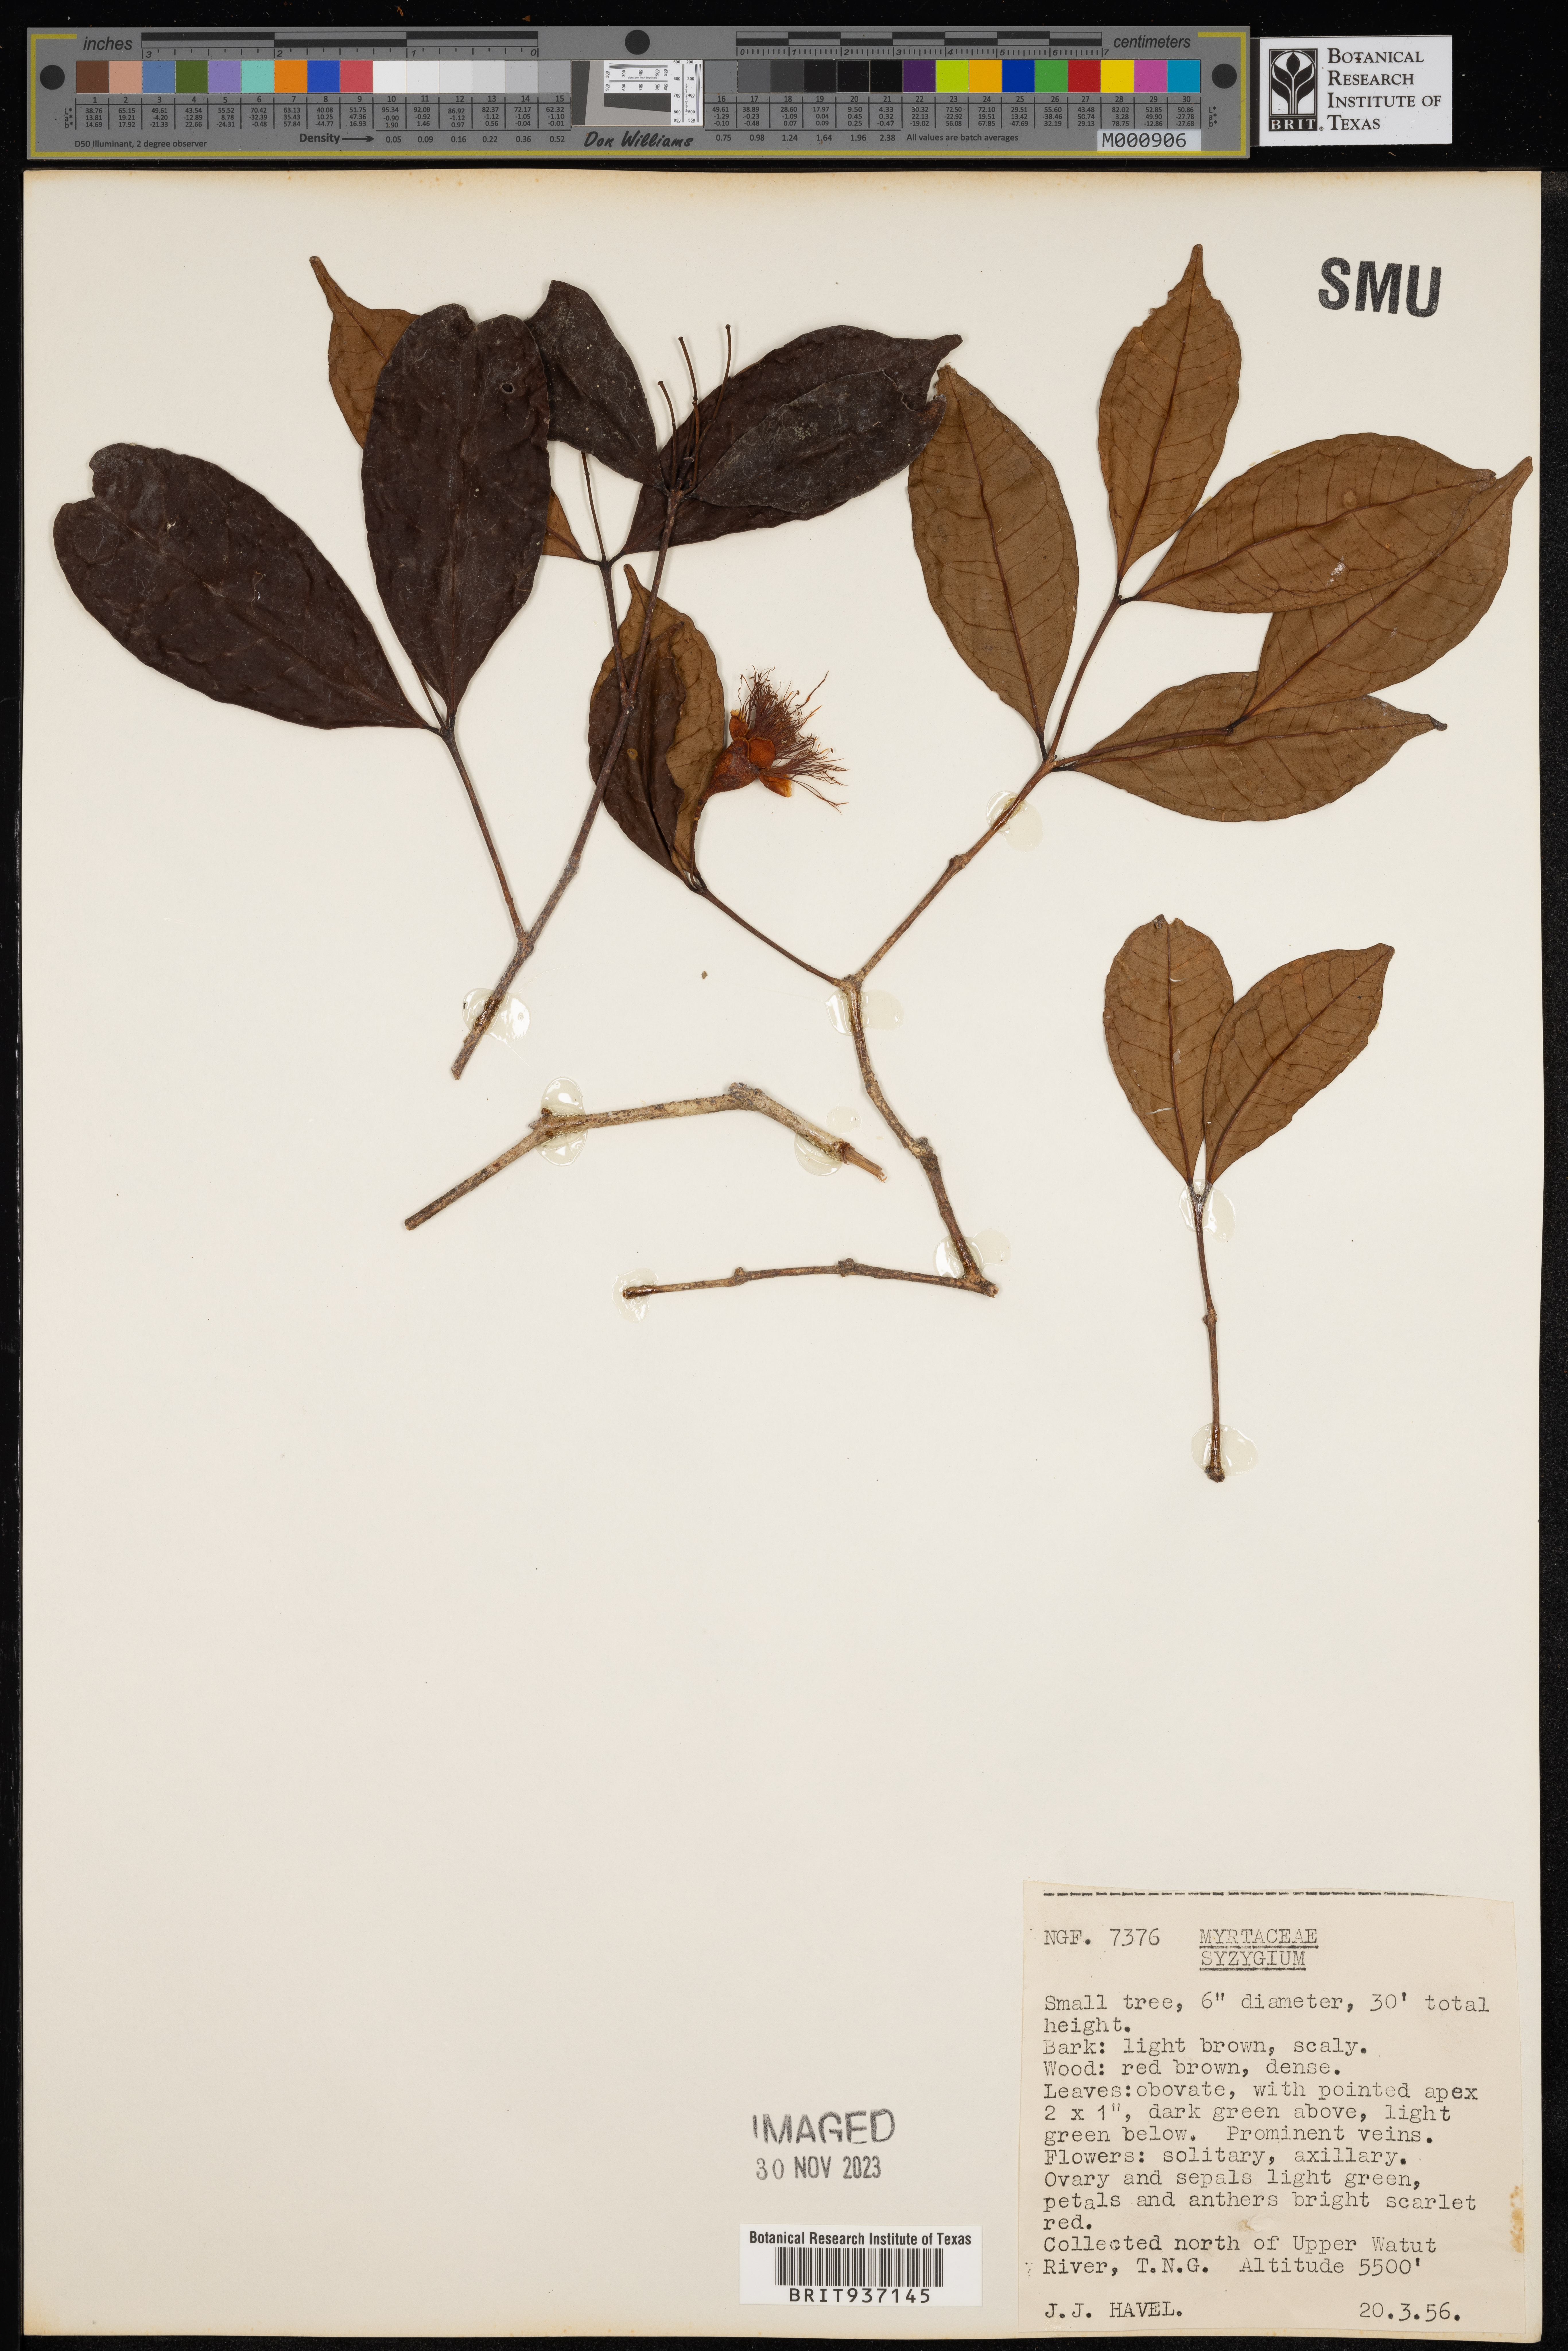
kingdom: Plantae
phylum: Tracheophyta
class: Magnoliopsida
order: Myrtales
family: Myrtaceae
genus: Syzygium
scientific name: Syzygium
